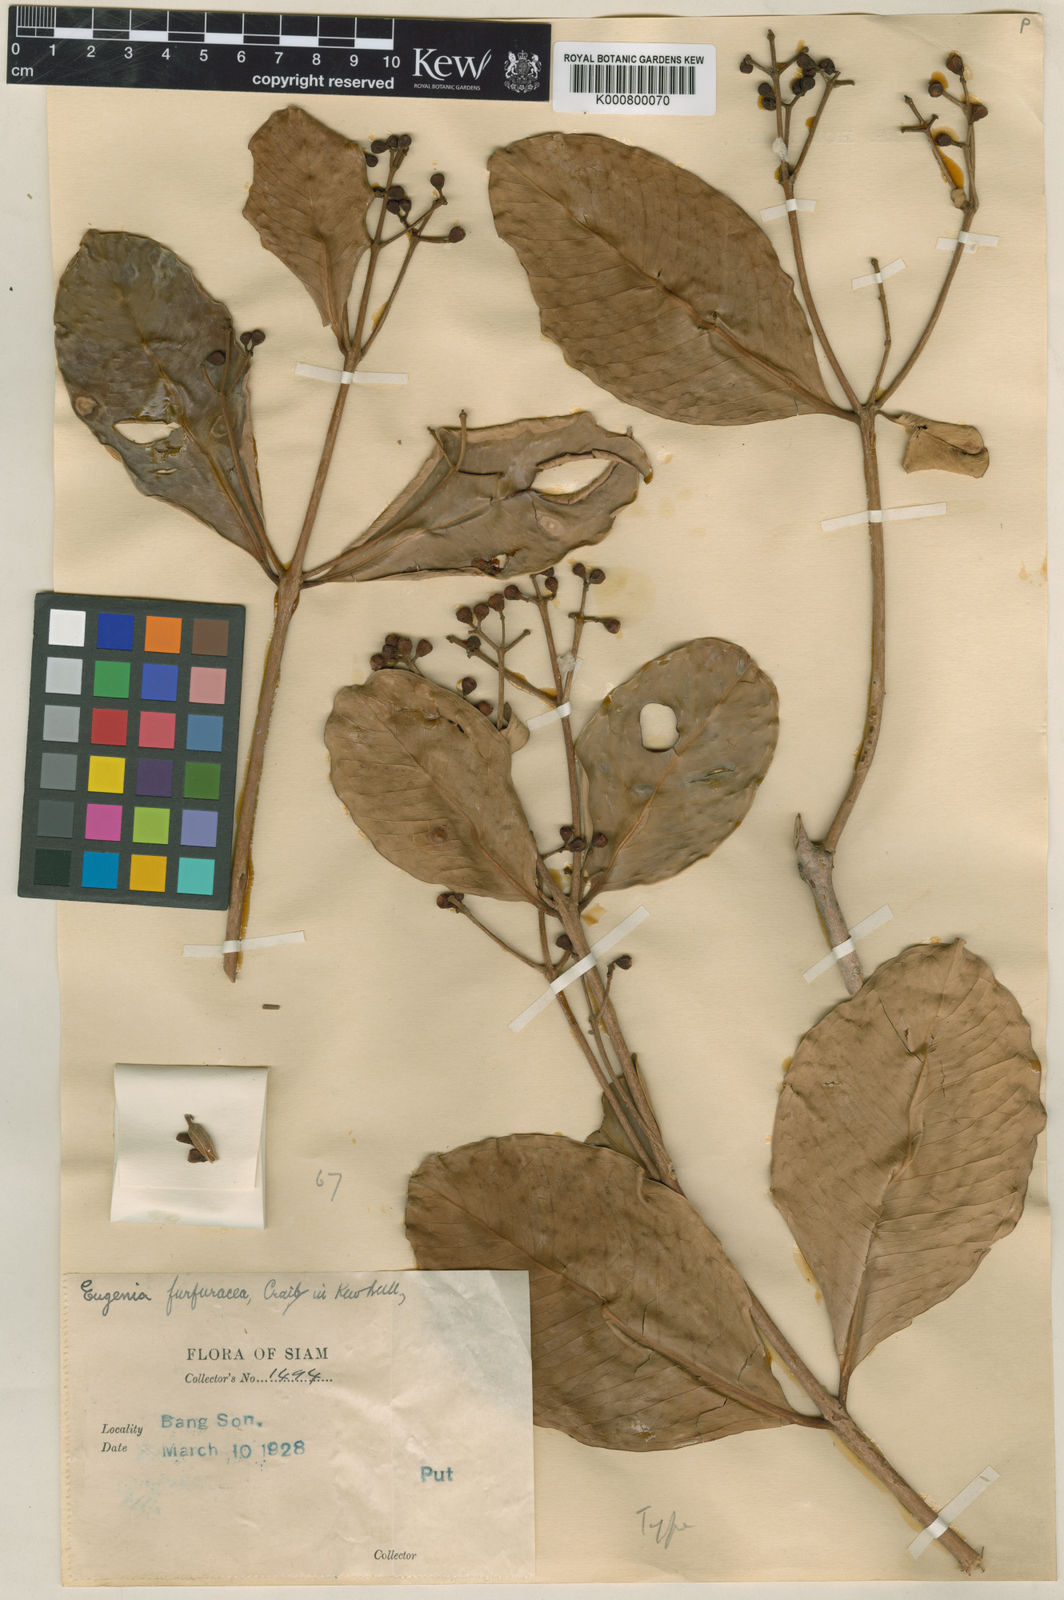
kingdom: Plantae
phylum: Tracheophyta
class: Magnoliopsida
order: Myrtales
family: Myrtaceae
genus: Syzygium
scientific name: Syzygium putii
